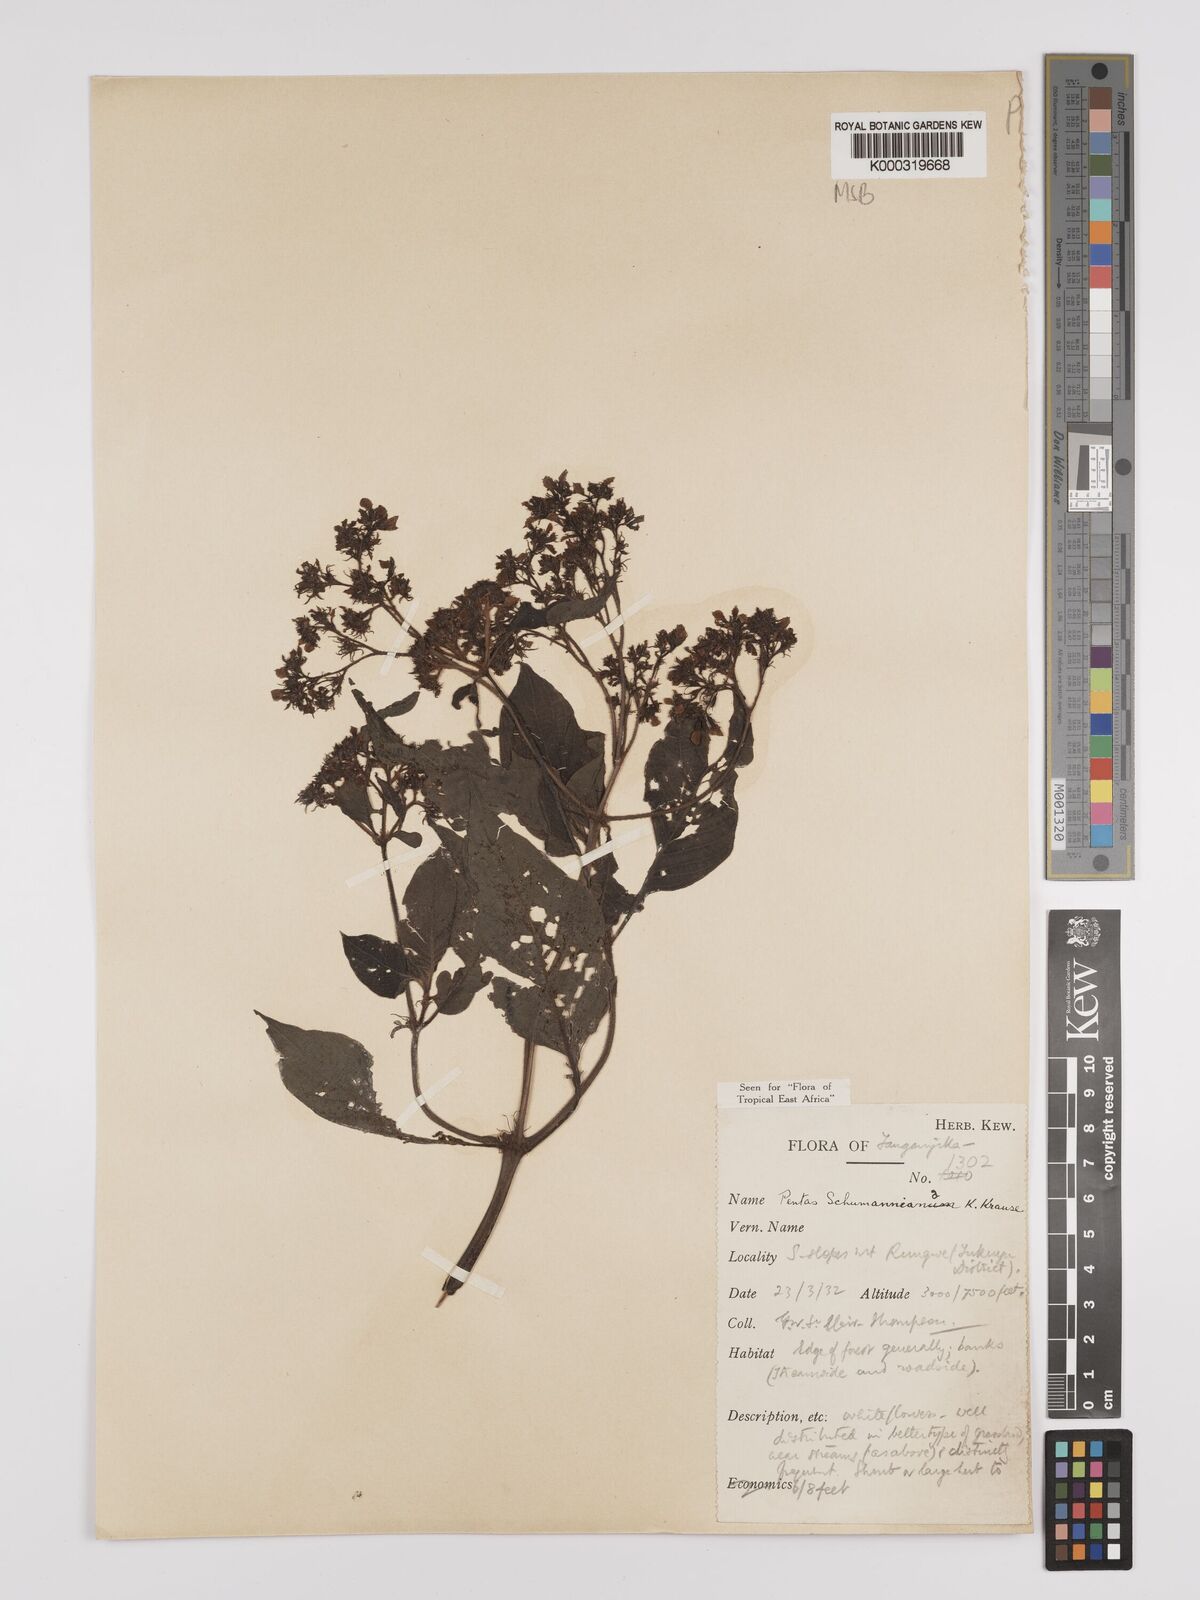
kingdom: Plantae
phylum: Tracheophyta
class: Magnoliopsida
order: Gentianales
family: Rubiaceae
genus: Phyllopentas
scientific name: Phyllopentas schumanniana
